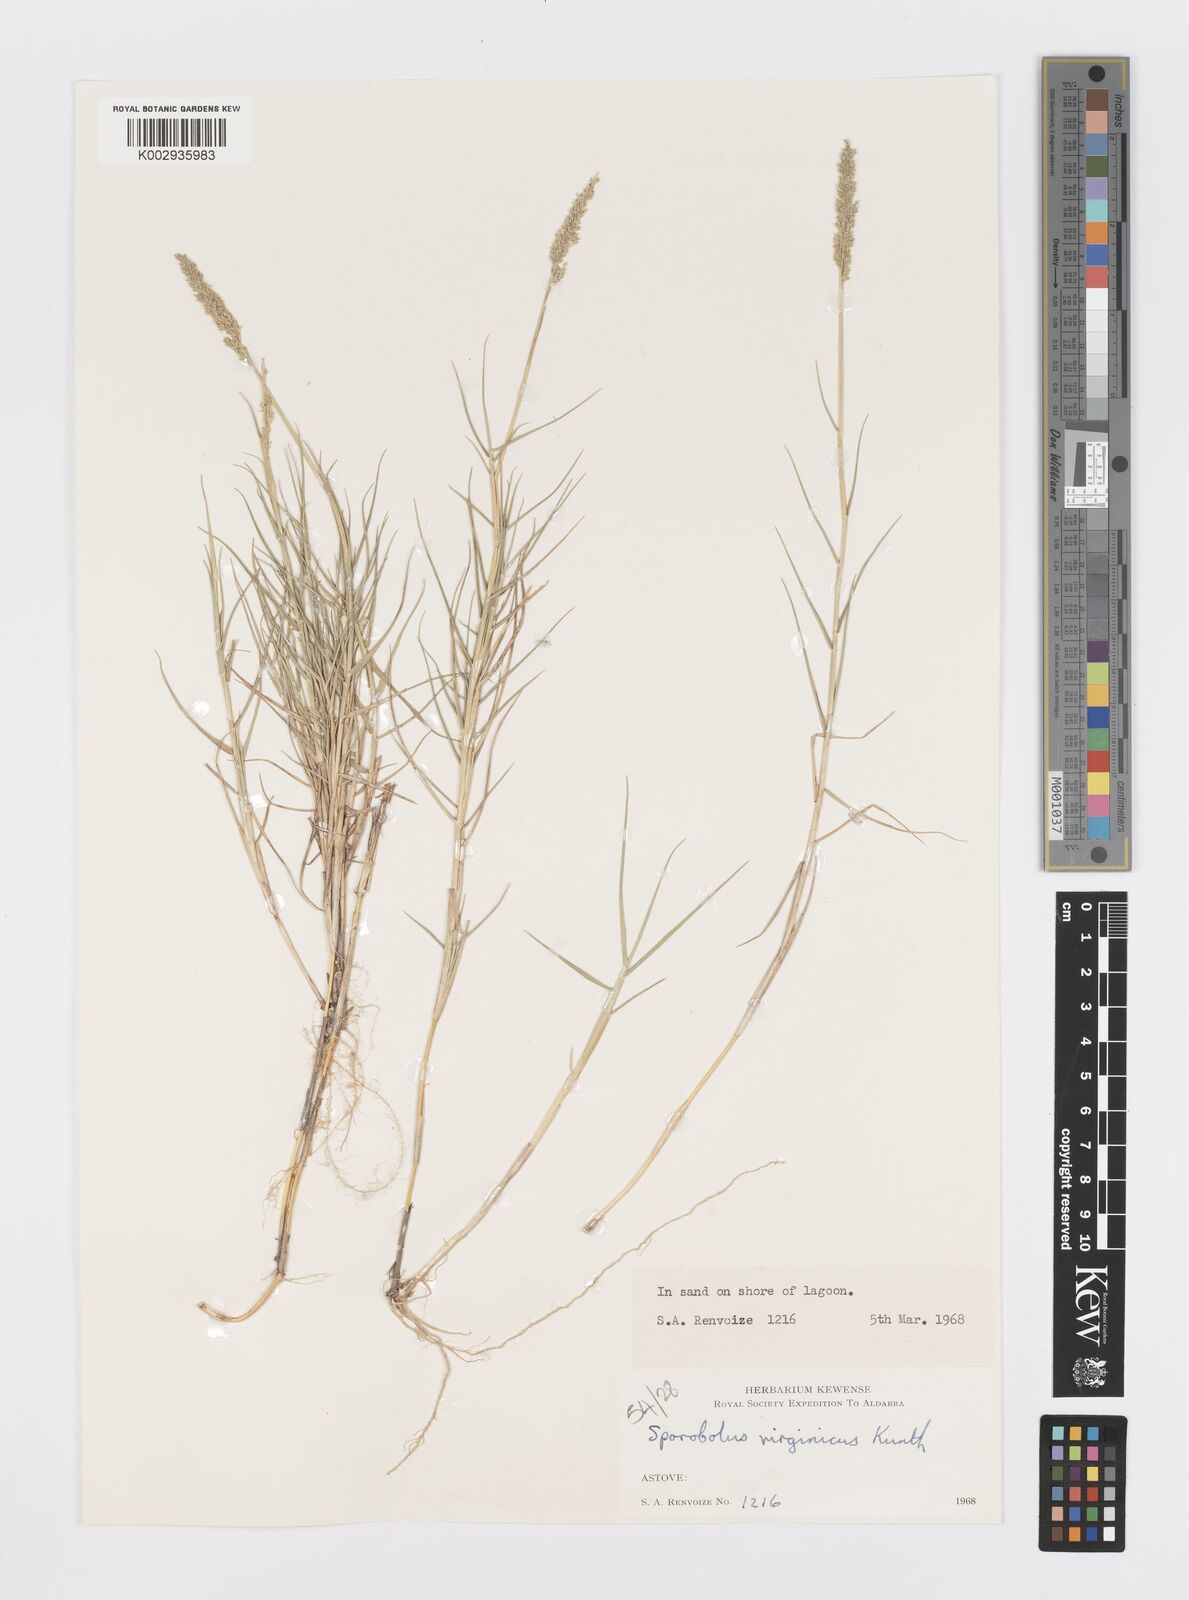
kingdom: Plantae
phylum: Tracheophyta
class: Liliopsida
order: Poales
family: Poaceae
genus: Sporobolus
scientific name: Sporobolus virginicus
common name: Beach dropseed
